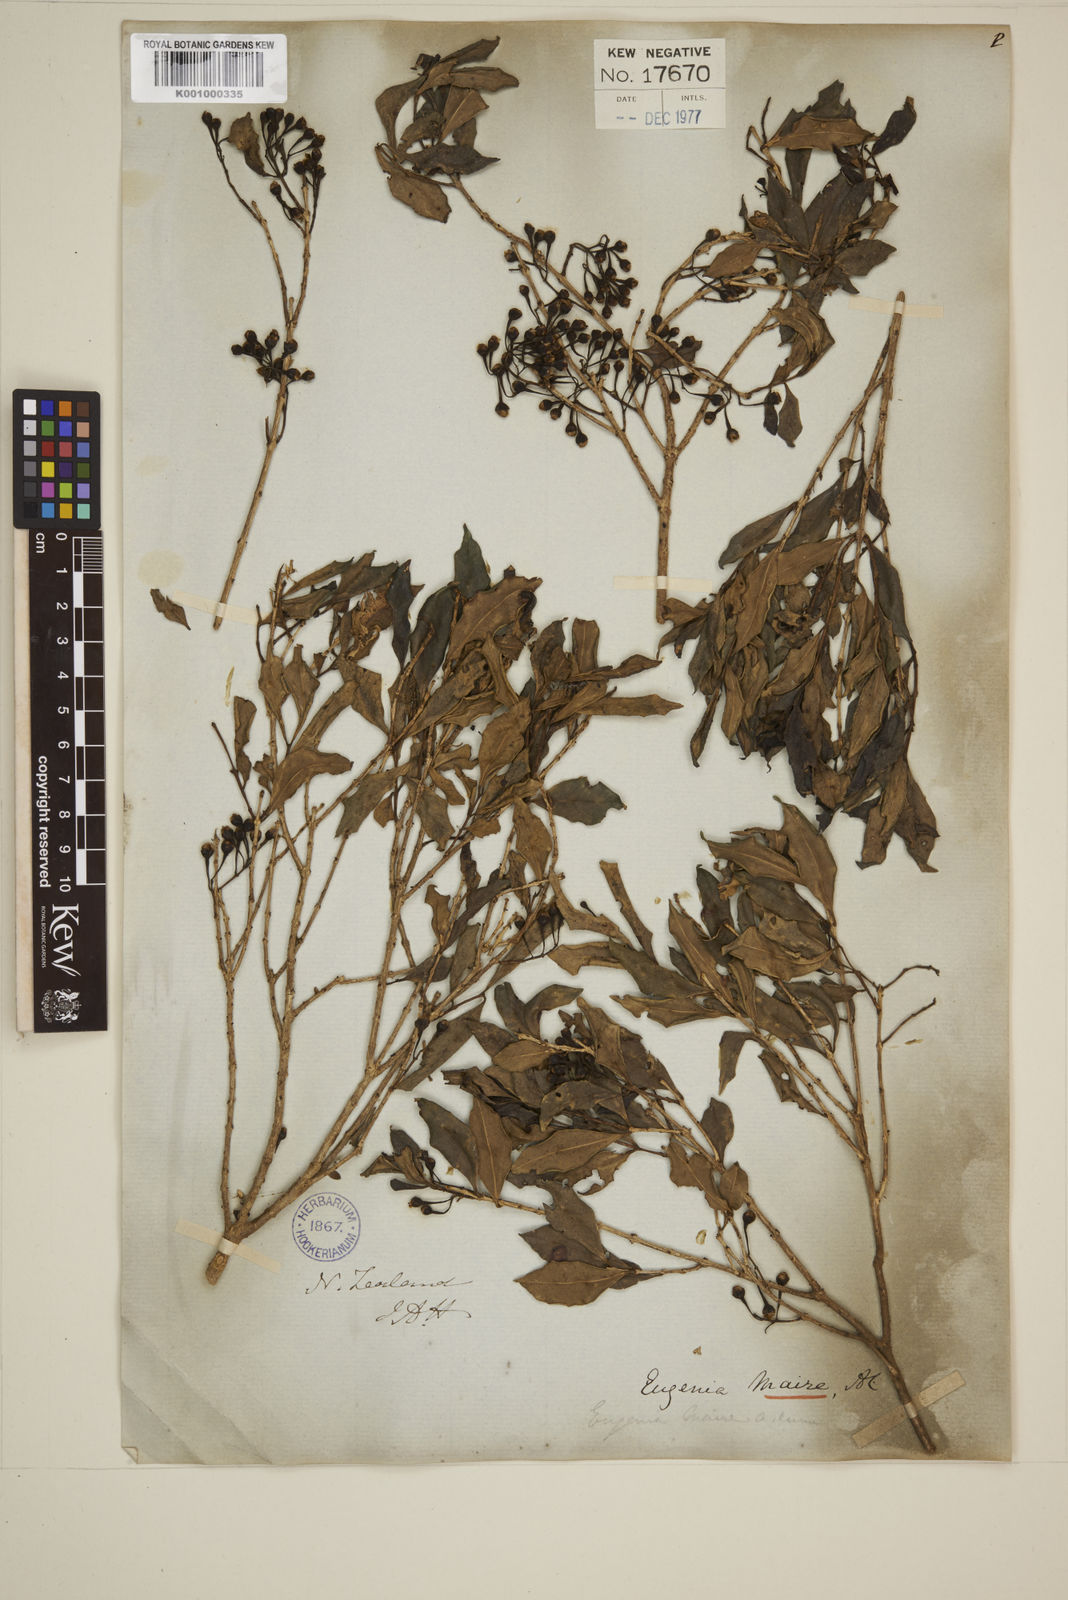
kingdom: Plantae
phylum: Tracheophyta
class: Magnoliopsida
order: Myrtales
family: Myrtaceae
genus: Syzygium
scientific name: Syzygium maire
